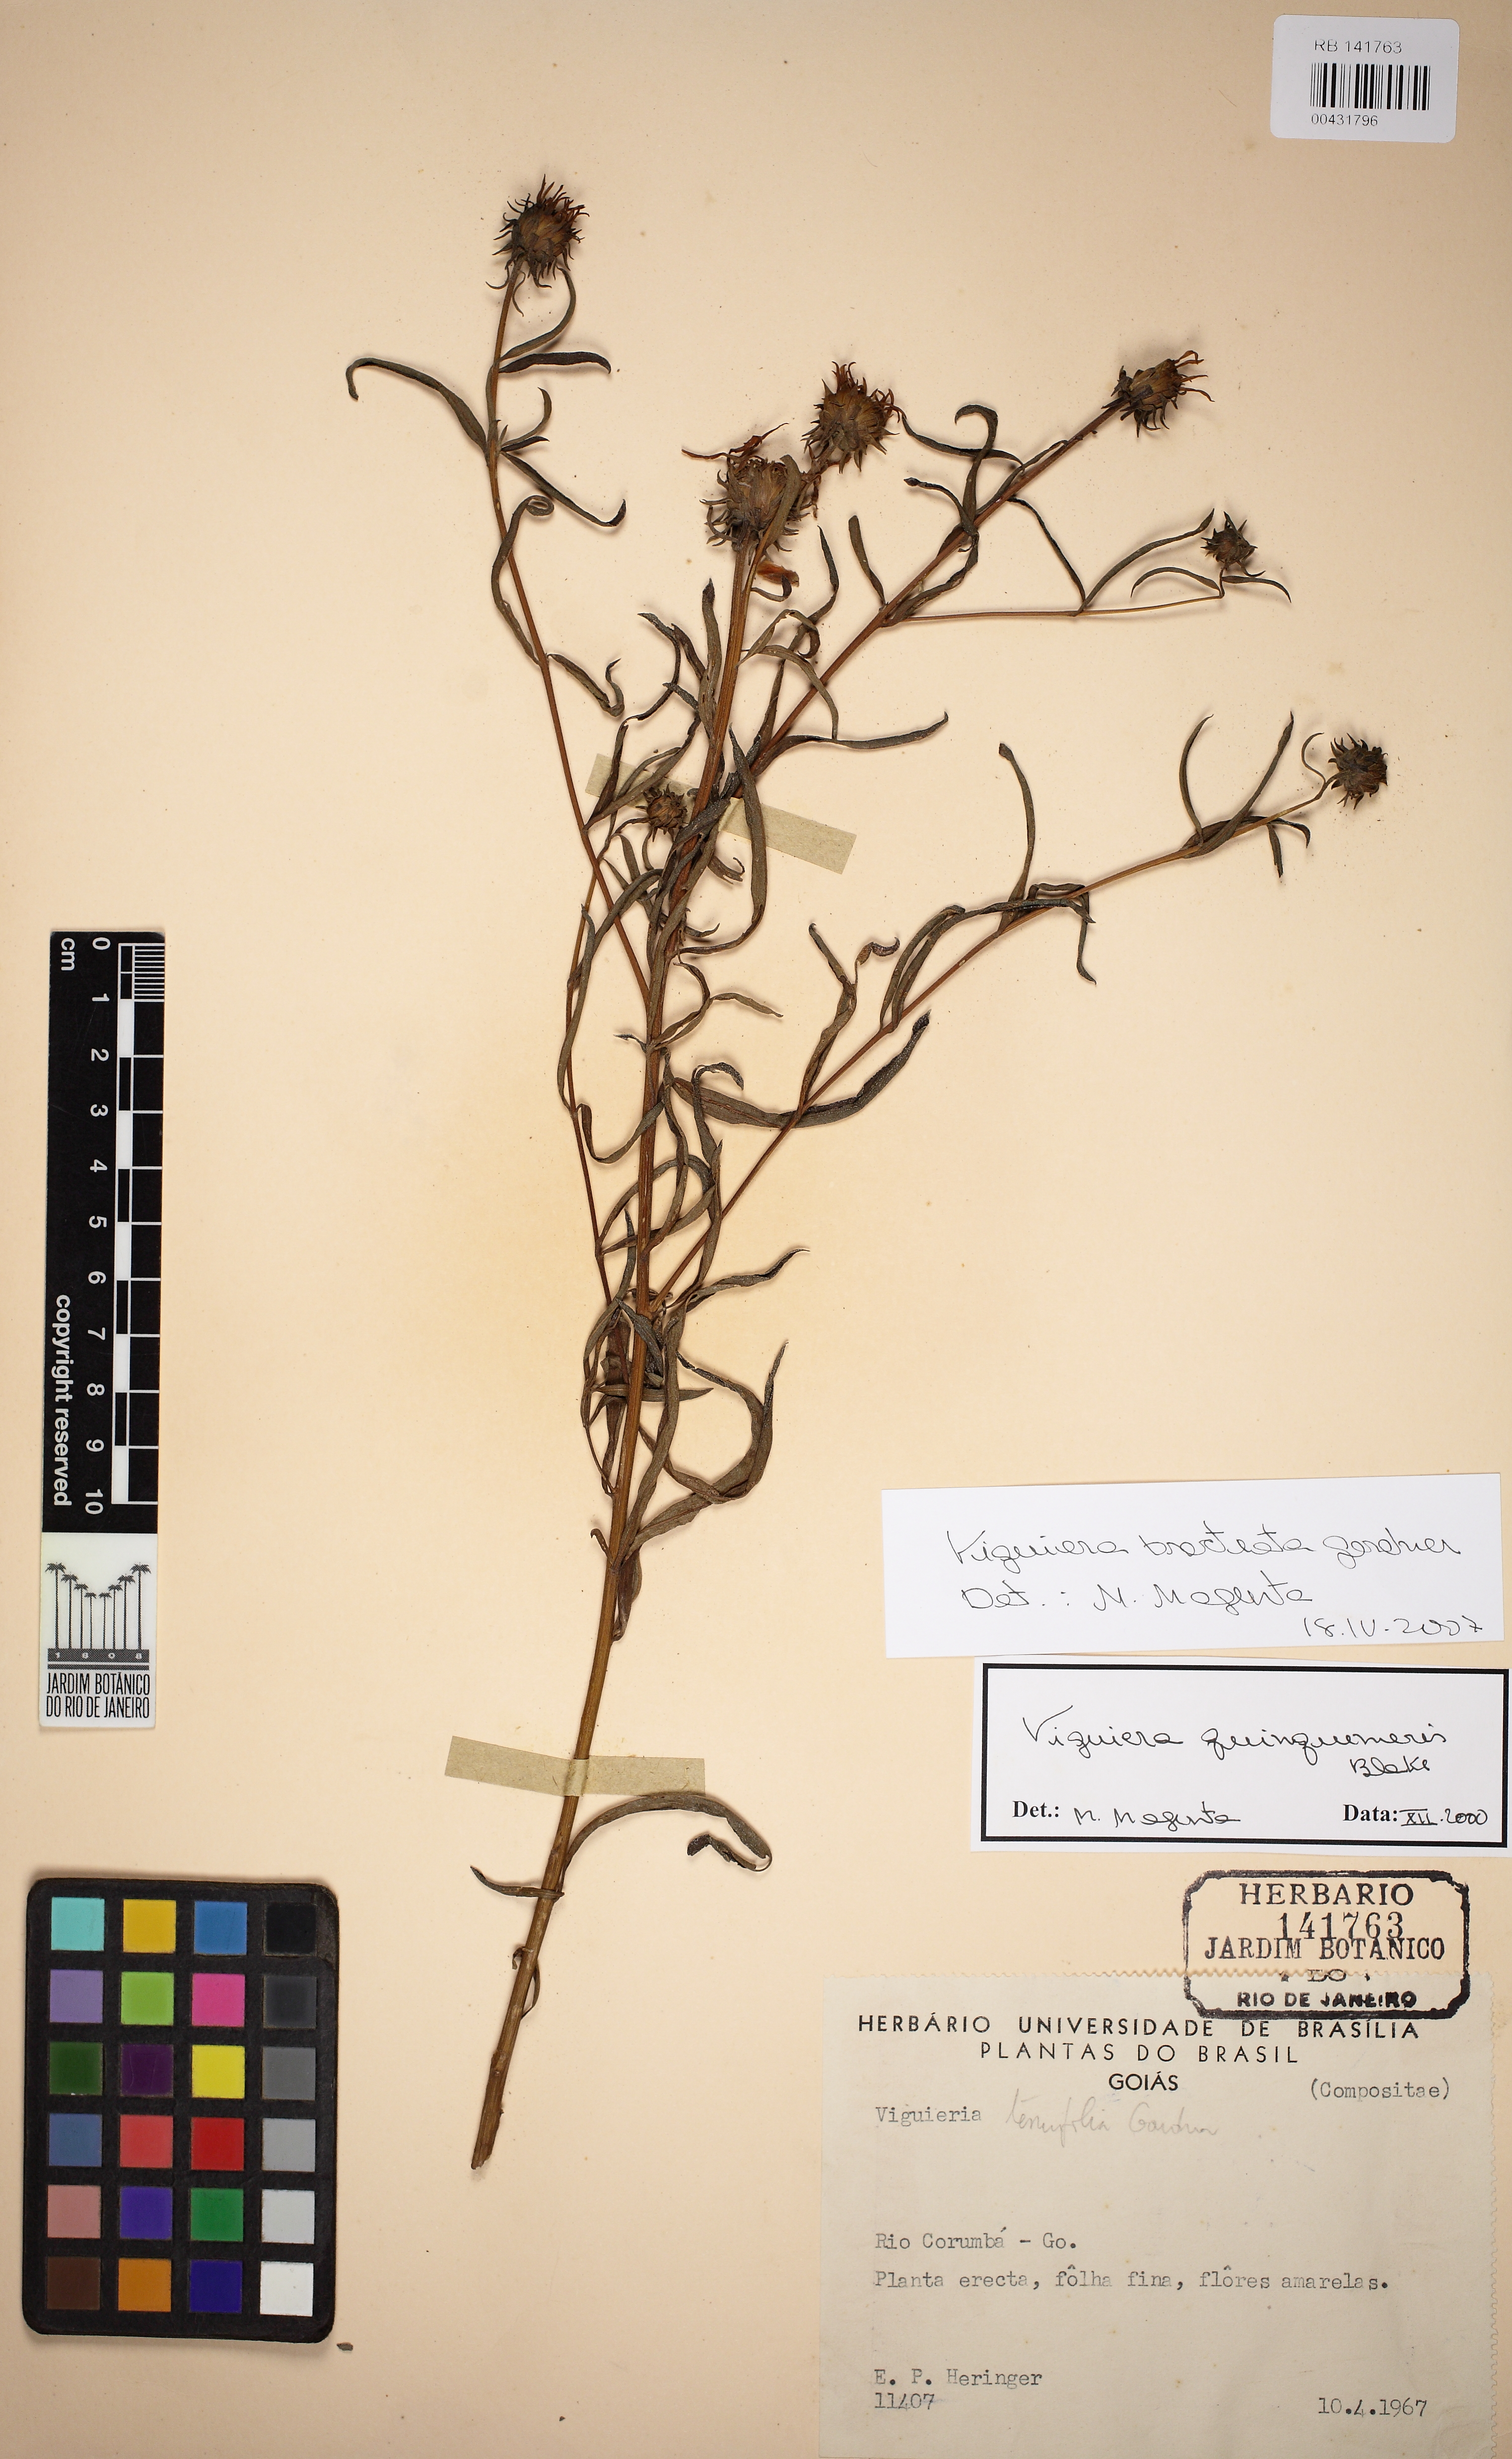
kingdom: Plantae
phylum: Tracheophyta
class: Magnoliopsida
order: Asterales
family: Asteraceae
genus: Aldama
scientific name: Aldama bracteata
